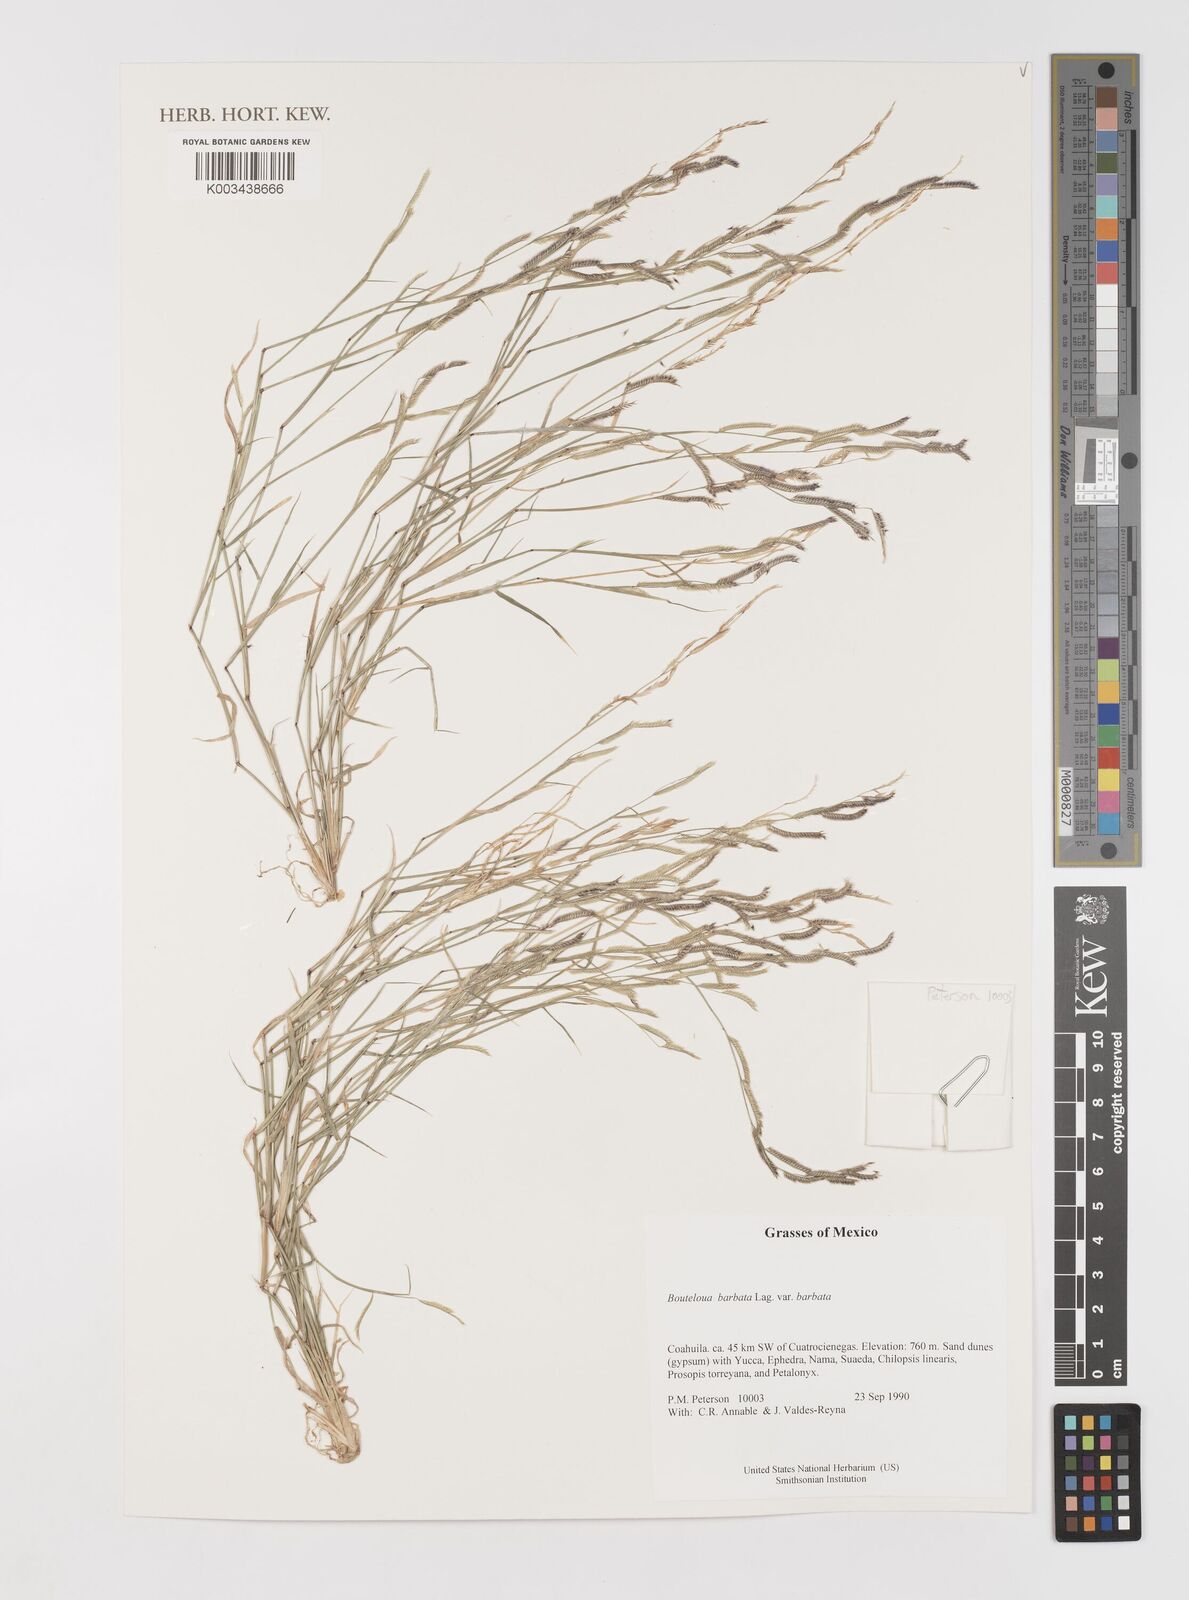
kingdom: Plantae
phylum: Tracheophyta
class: Liliopsida
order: Poales
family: Poaceae
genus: Bouteloua
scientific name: Bouteloua
